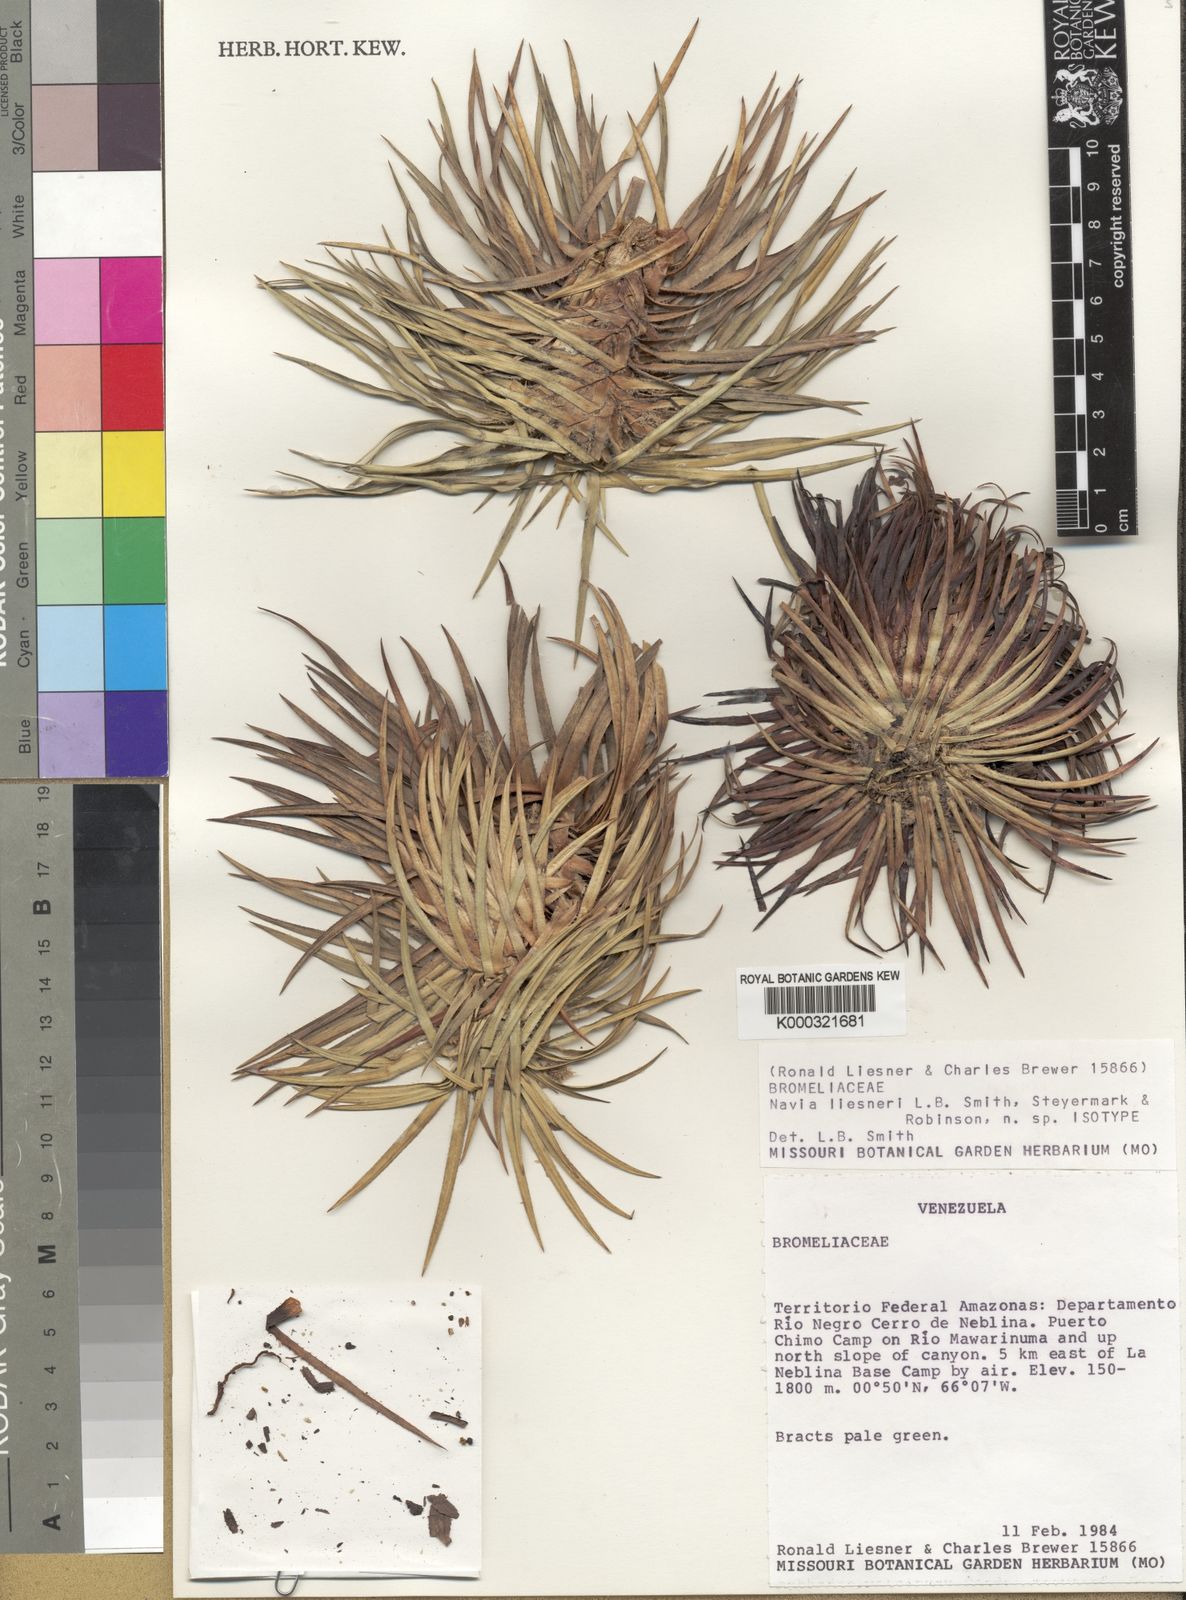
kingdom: Plantae
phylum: Tracheophyta
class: Liliopsida
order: Poales
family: Bromeliaceae
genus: Navia
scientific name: Navia liesneri
